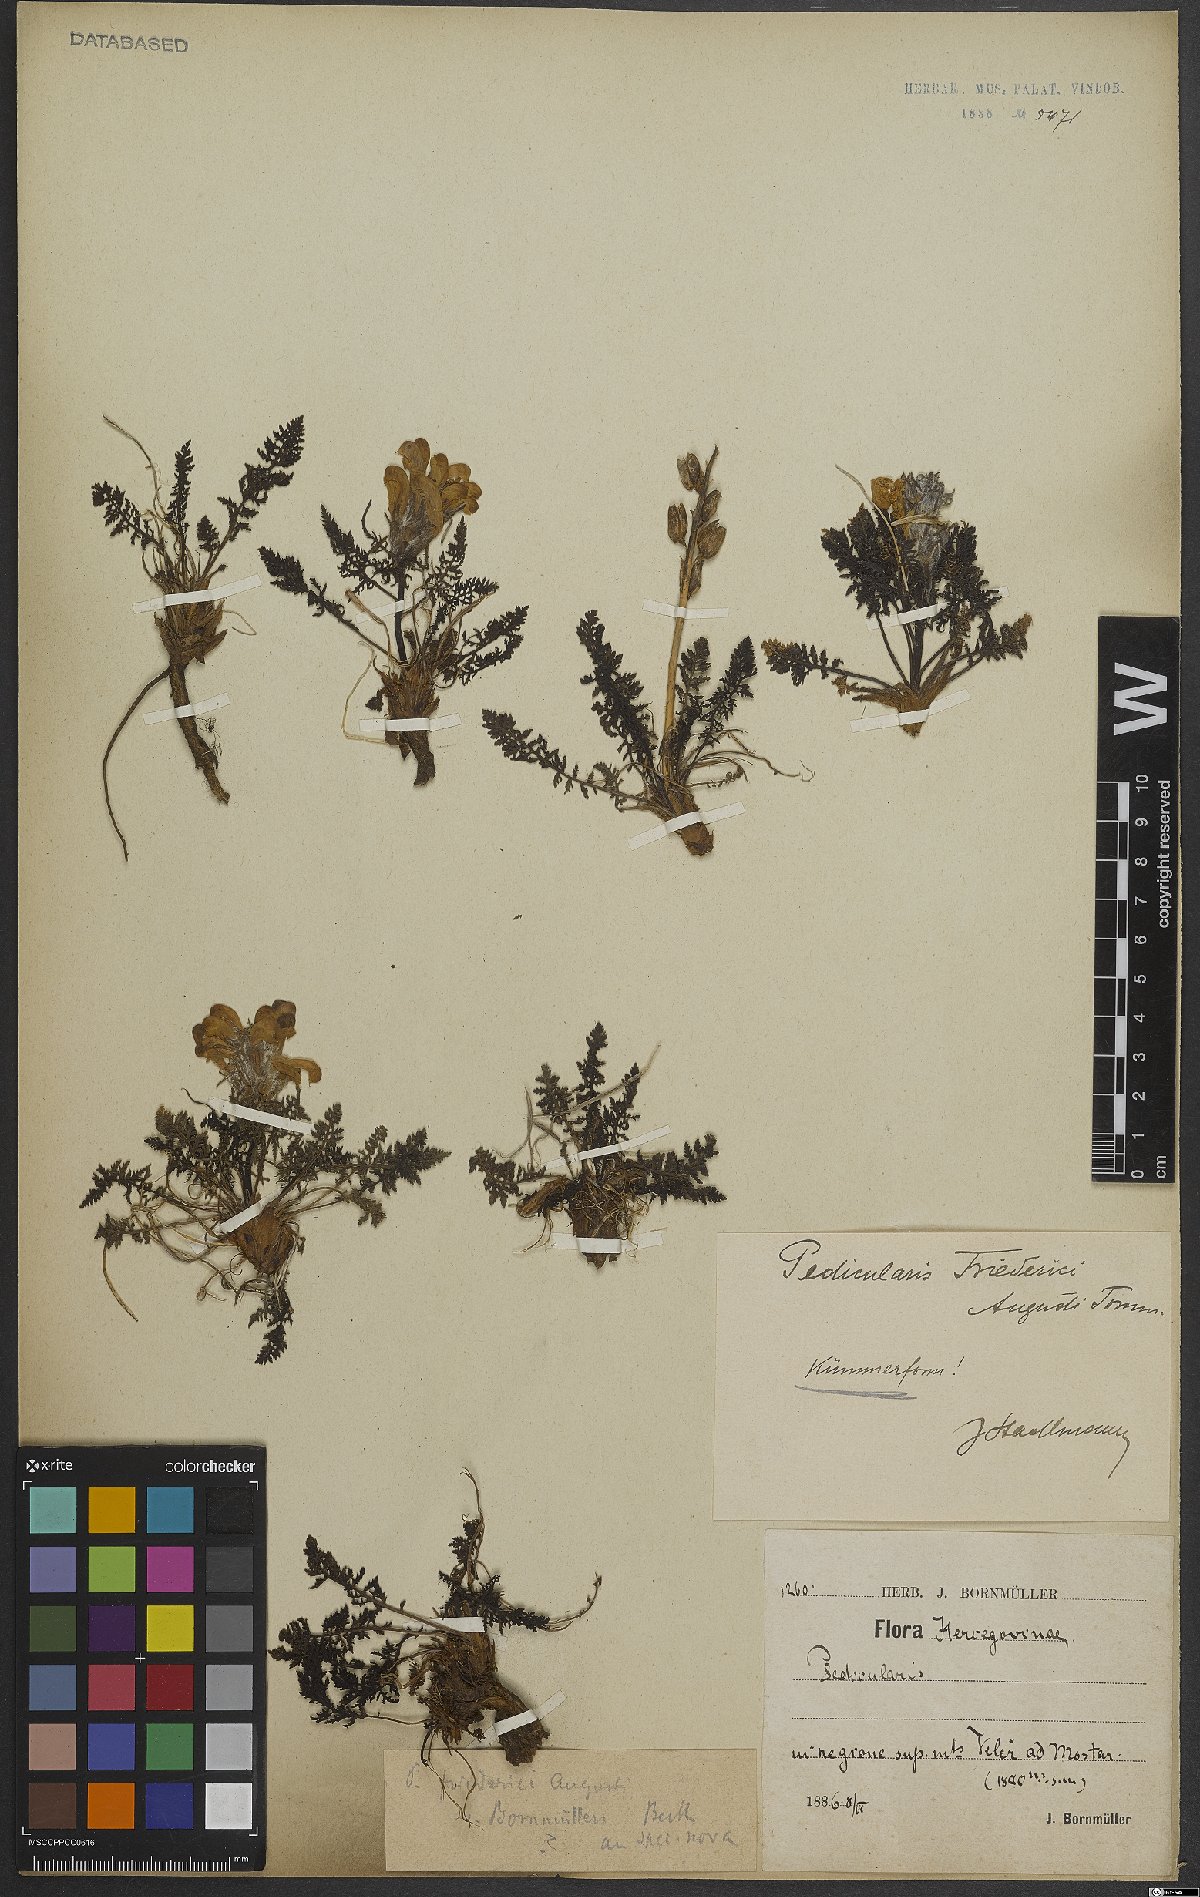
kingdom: Plantae
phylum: Tracheophyta
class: Magnoliopsida
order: Lamiales
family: Orobanchaceae
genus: Pedicularis
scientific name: Pedicularis friderici-augusti
